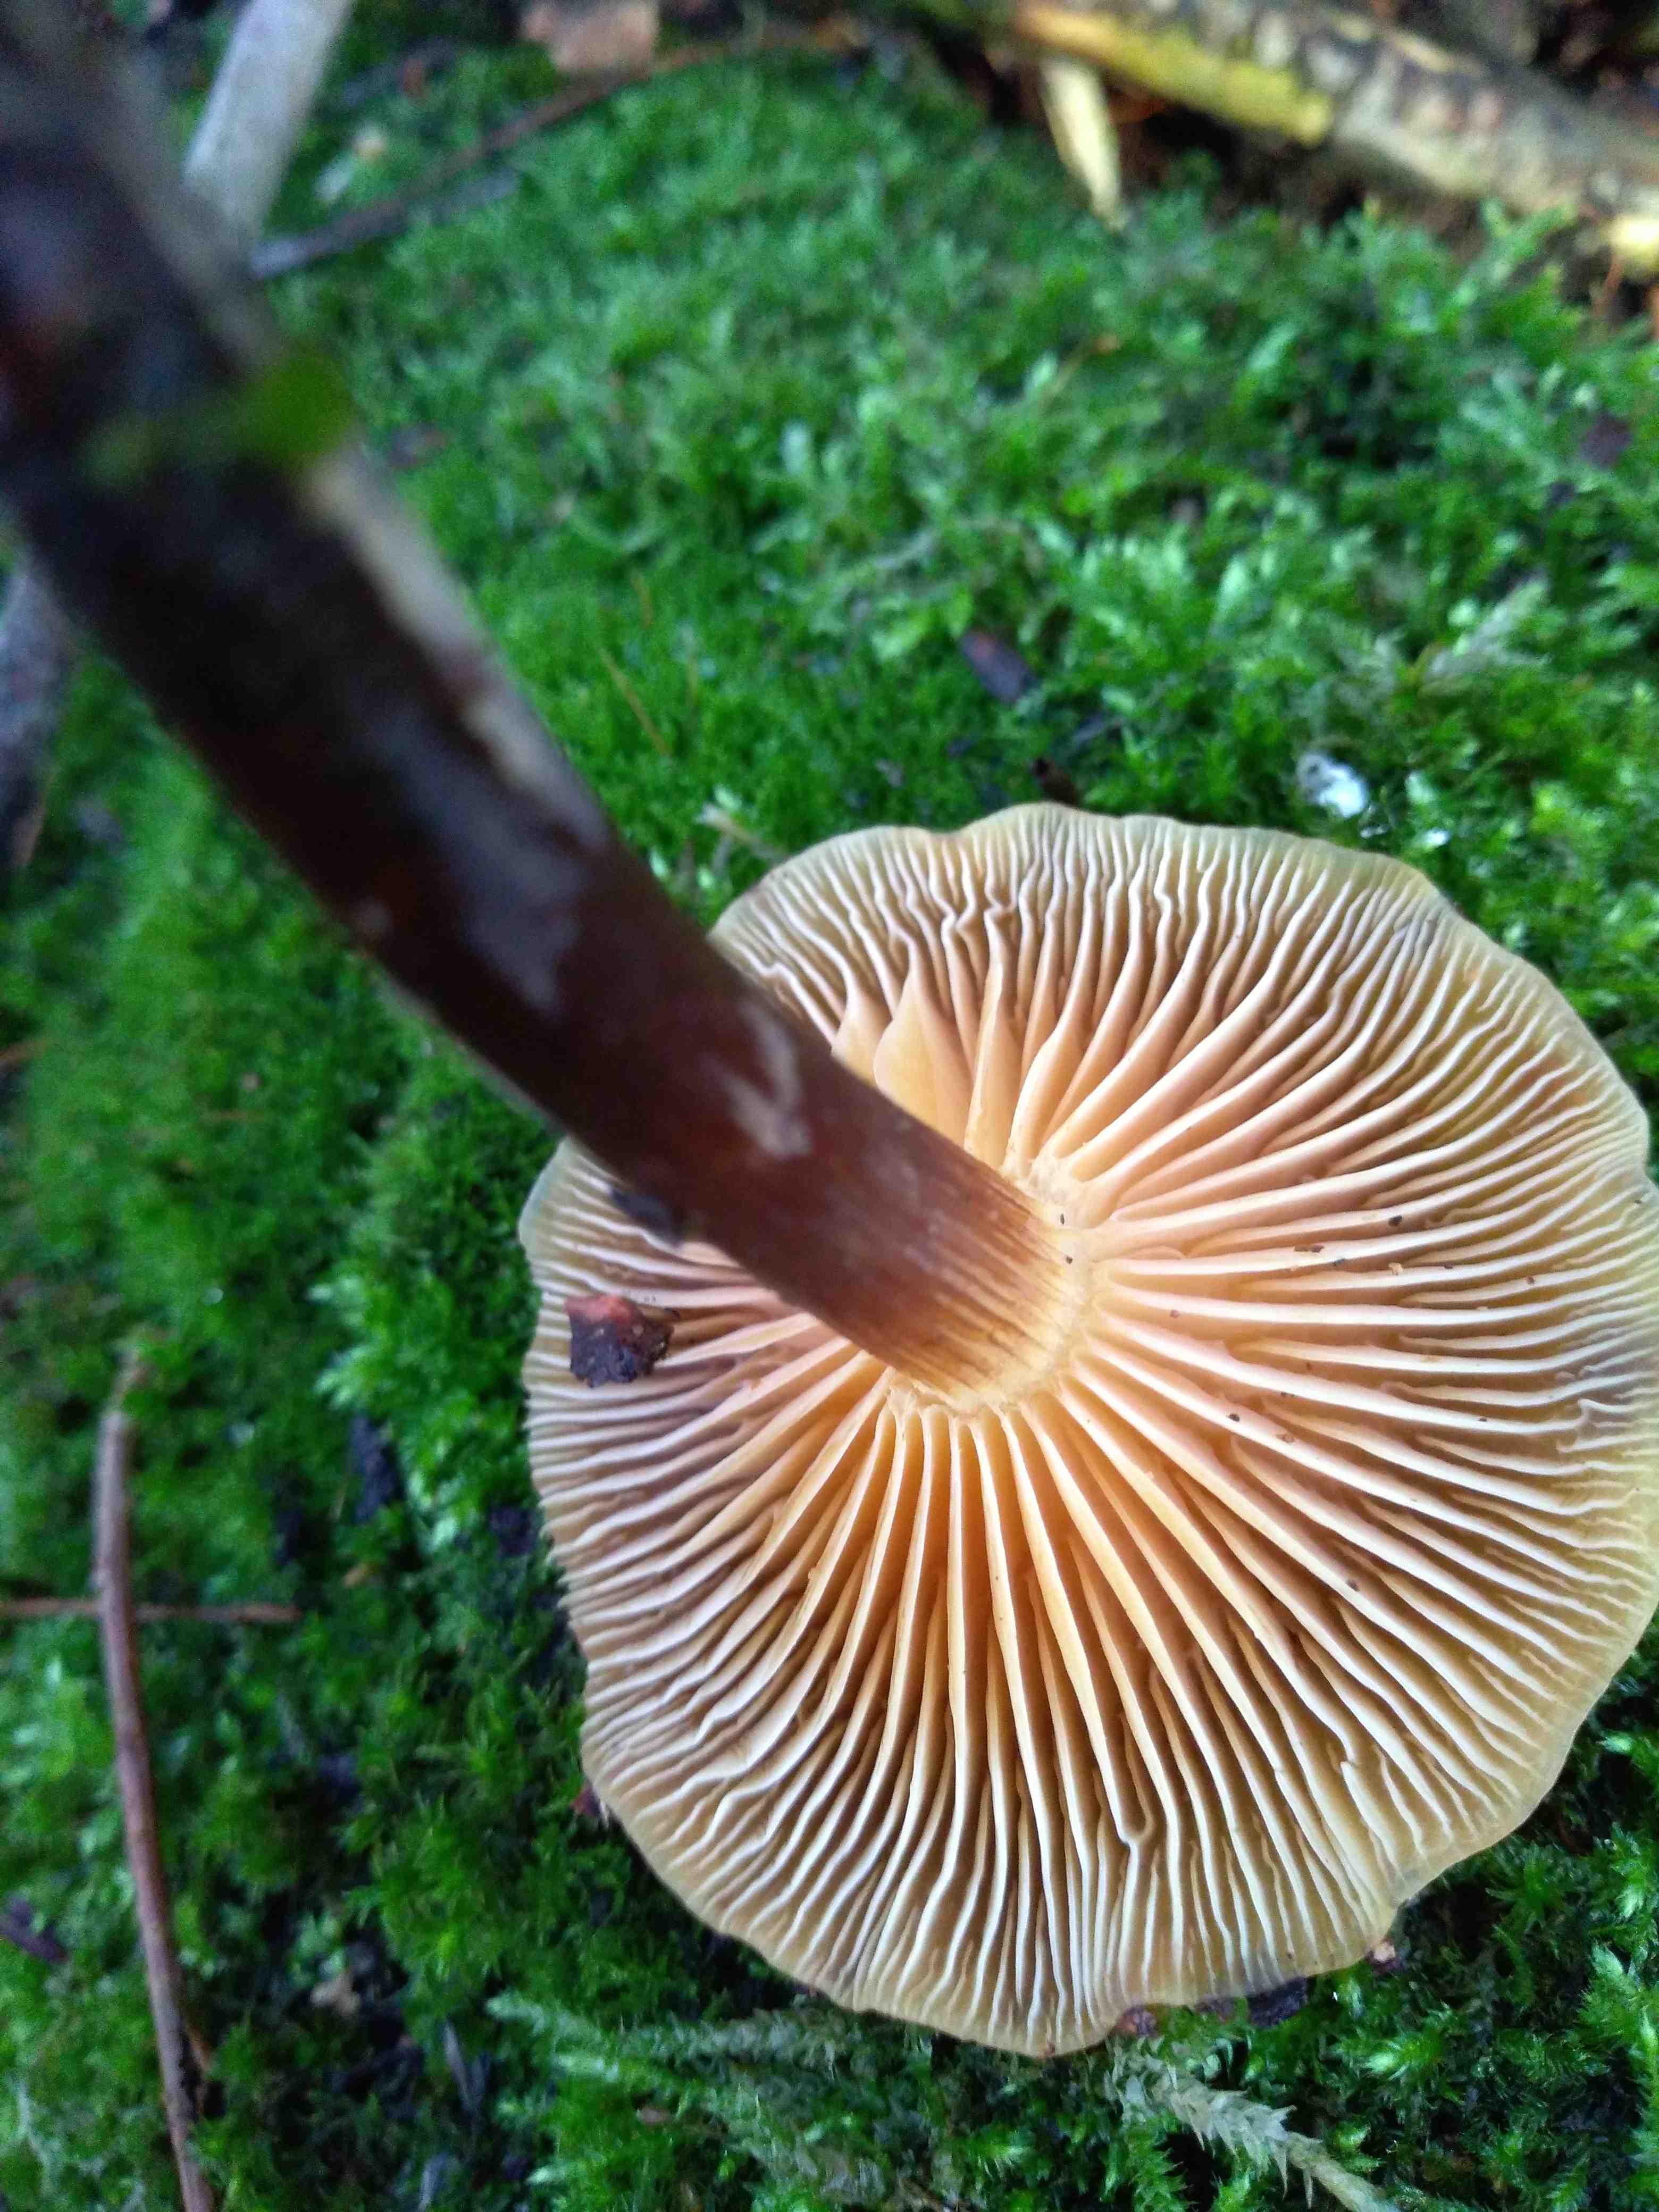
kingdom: Fungi
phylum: Basidiomycota
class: Agaricomycetes
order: Agaricales
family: Physalacriaceae
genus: Flammulina
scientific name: Flammulina
